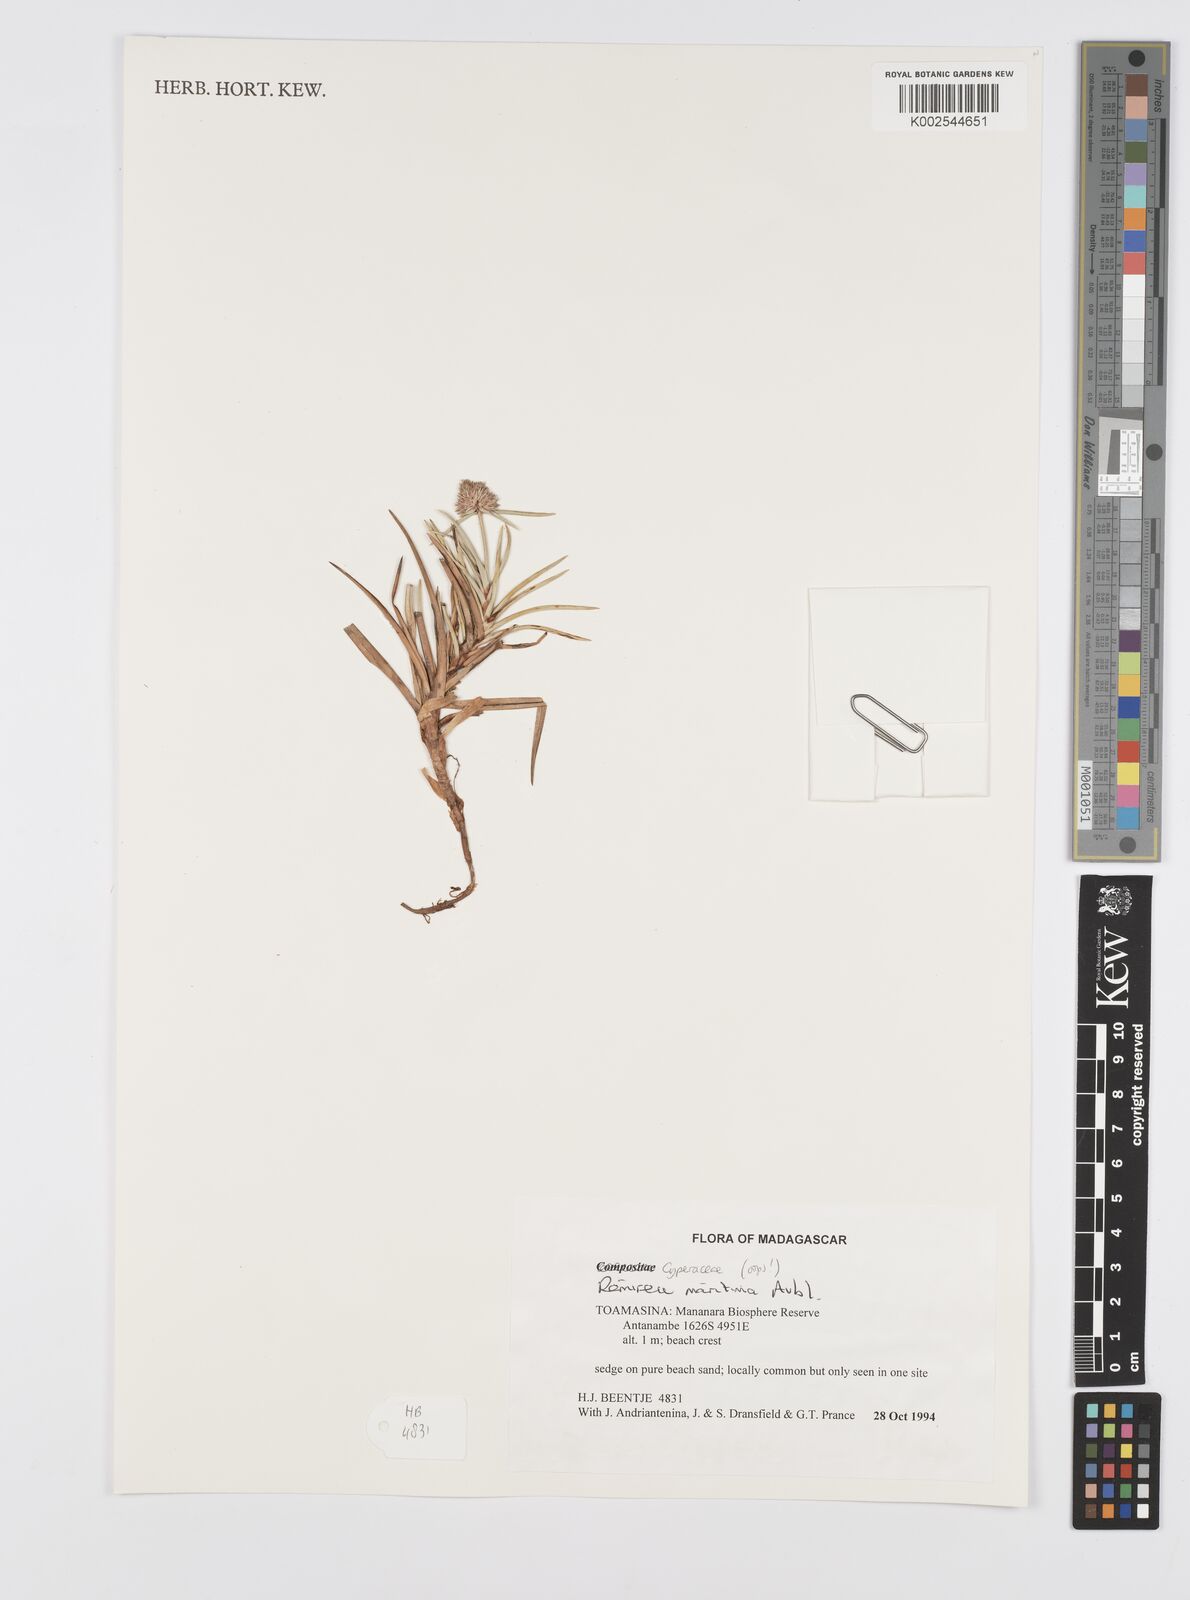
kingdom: Plantae
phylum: Tracheophyta
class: Liliopsida
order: Poales
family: Cyperaceae
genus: Cyperus
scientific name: Cyperus
